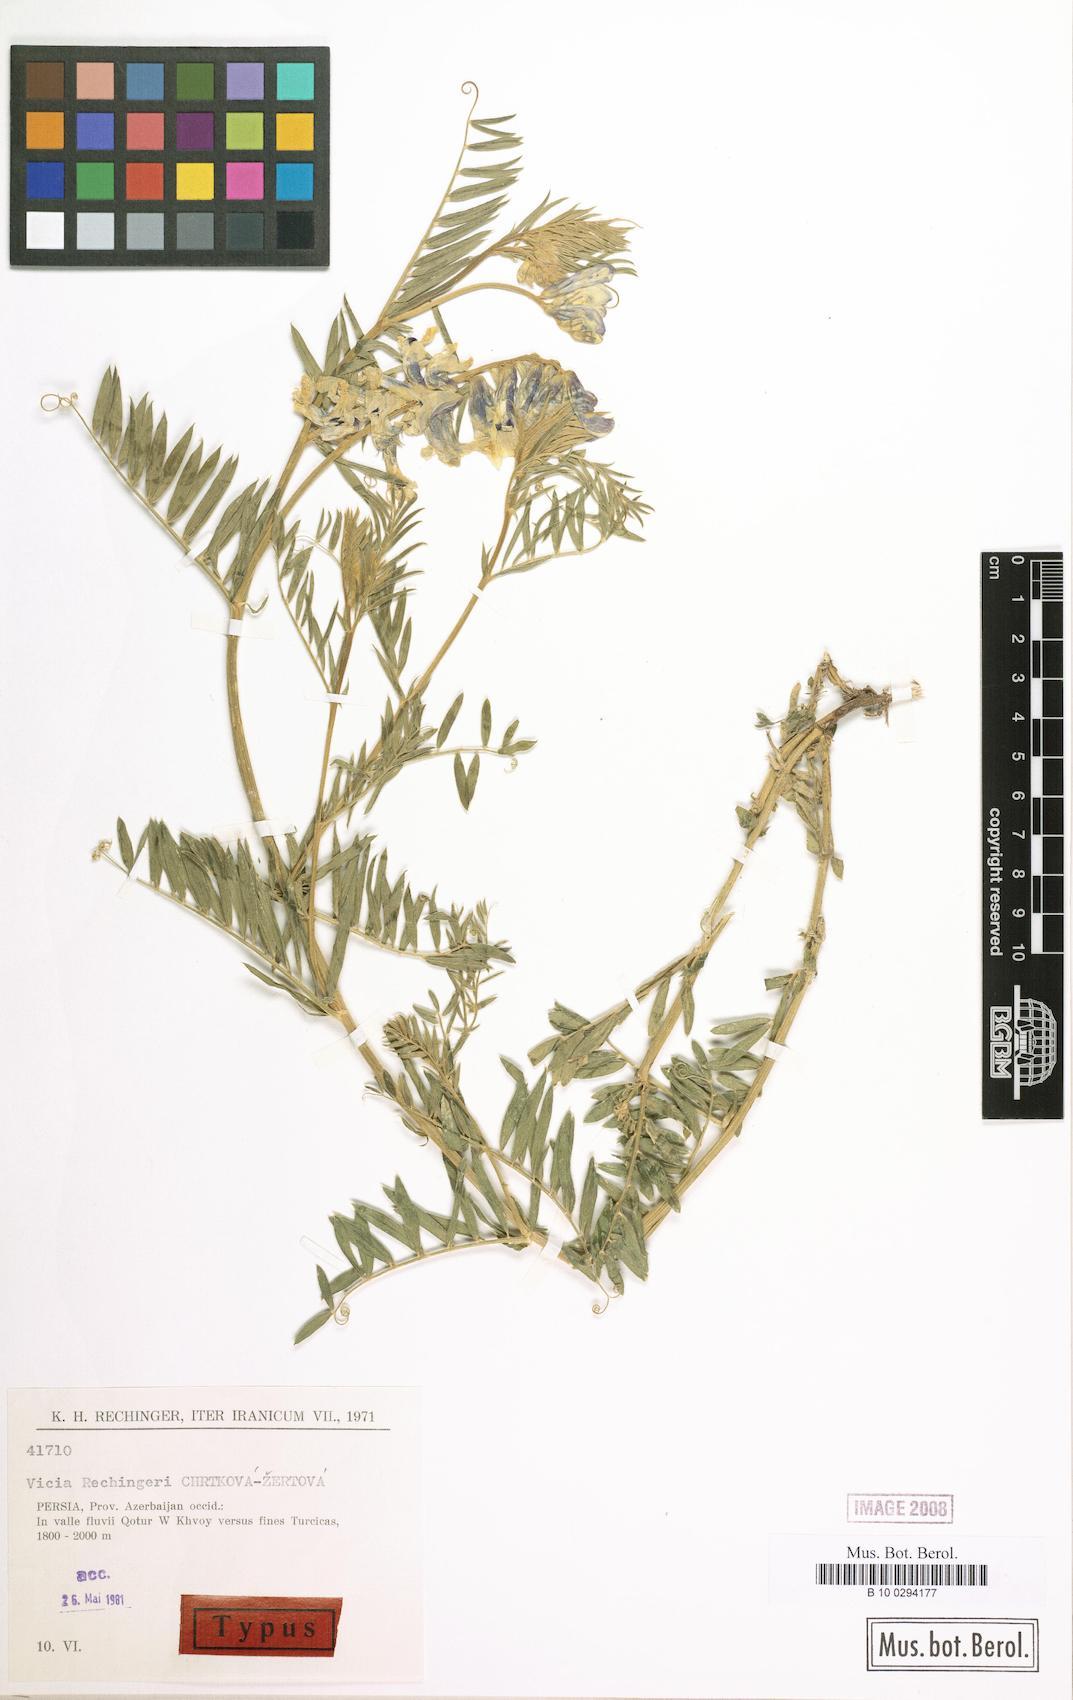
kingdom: Plantae
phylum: Tracheophyta
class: Magnoliopsida
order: Fabales
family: Fabaceae
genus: Vicia
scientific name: Vicia canescens
